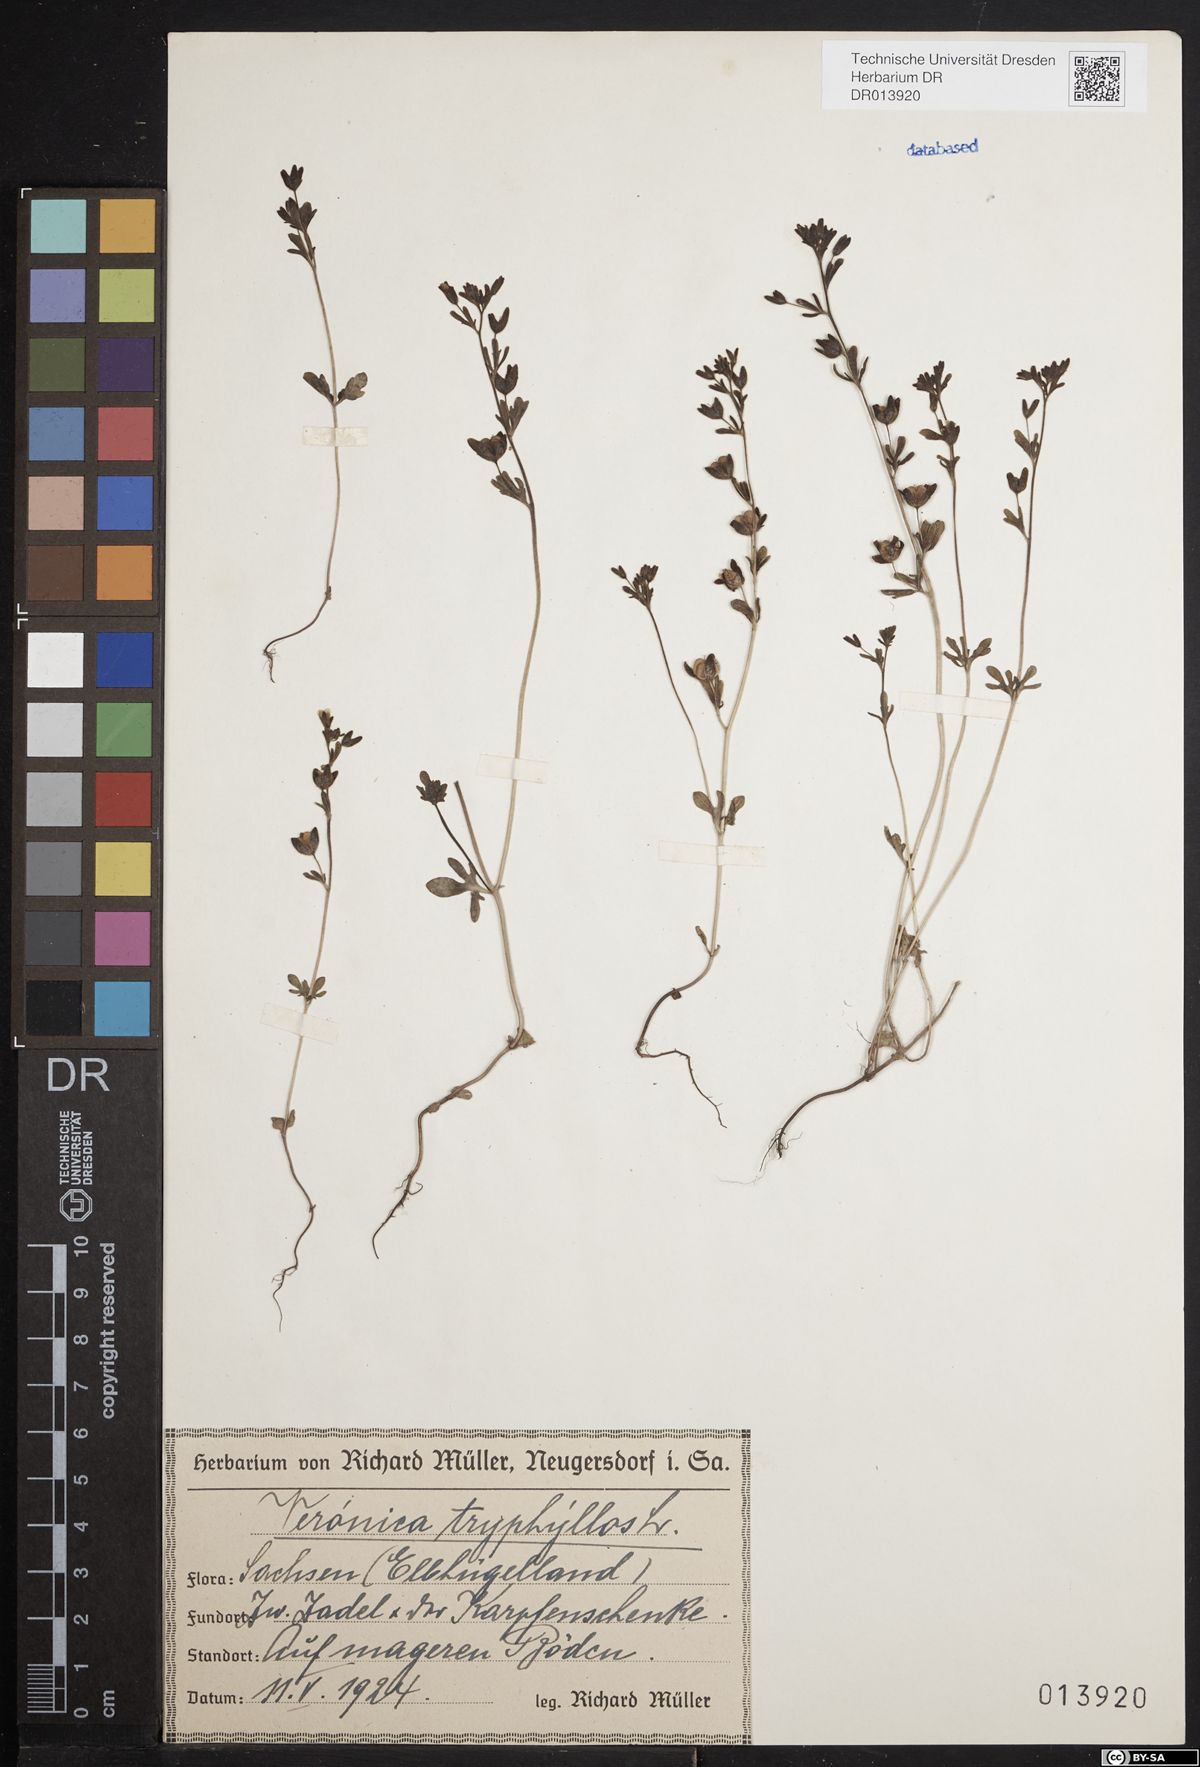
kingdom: Plantae
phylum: Tracheophyta
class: Magnoliopsida
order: Lamiales
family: Plantaginaceae
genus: Veronica
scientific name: Veronica triphyllos
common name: Fingered speedwell
